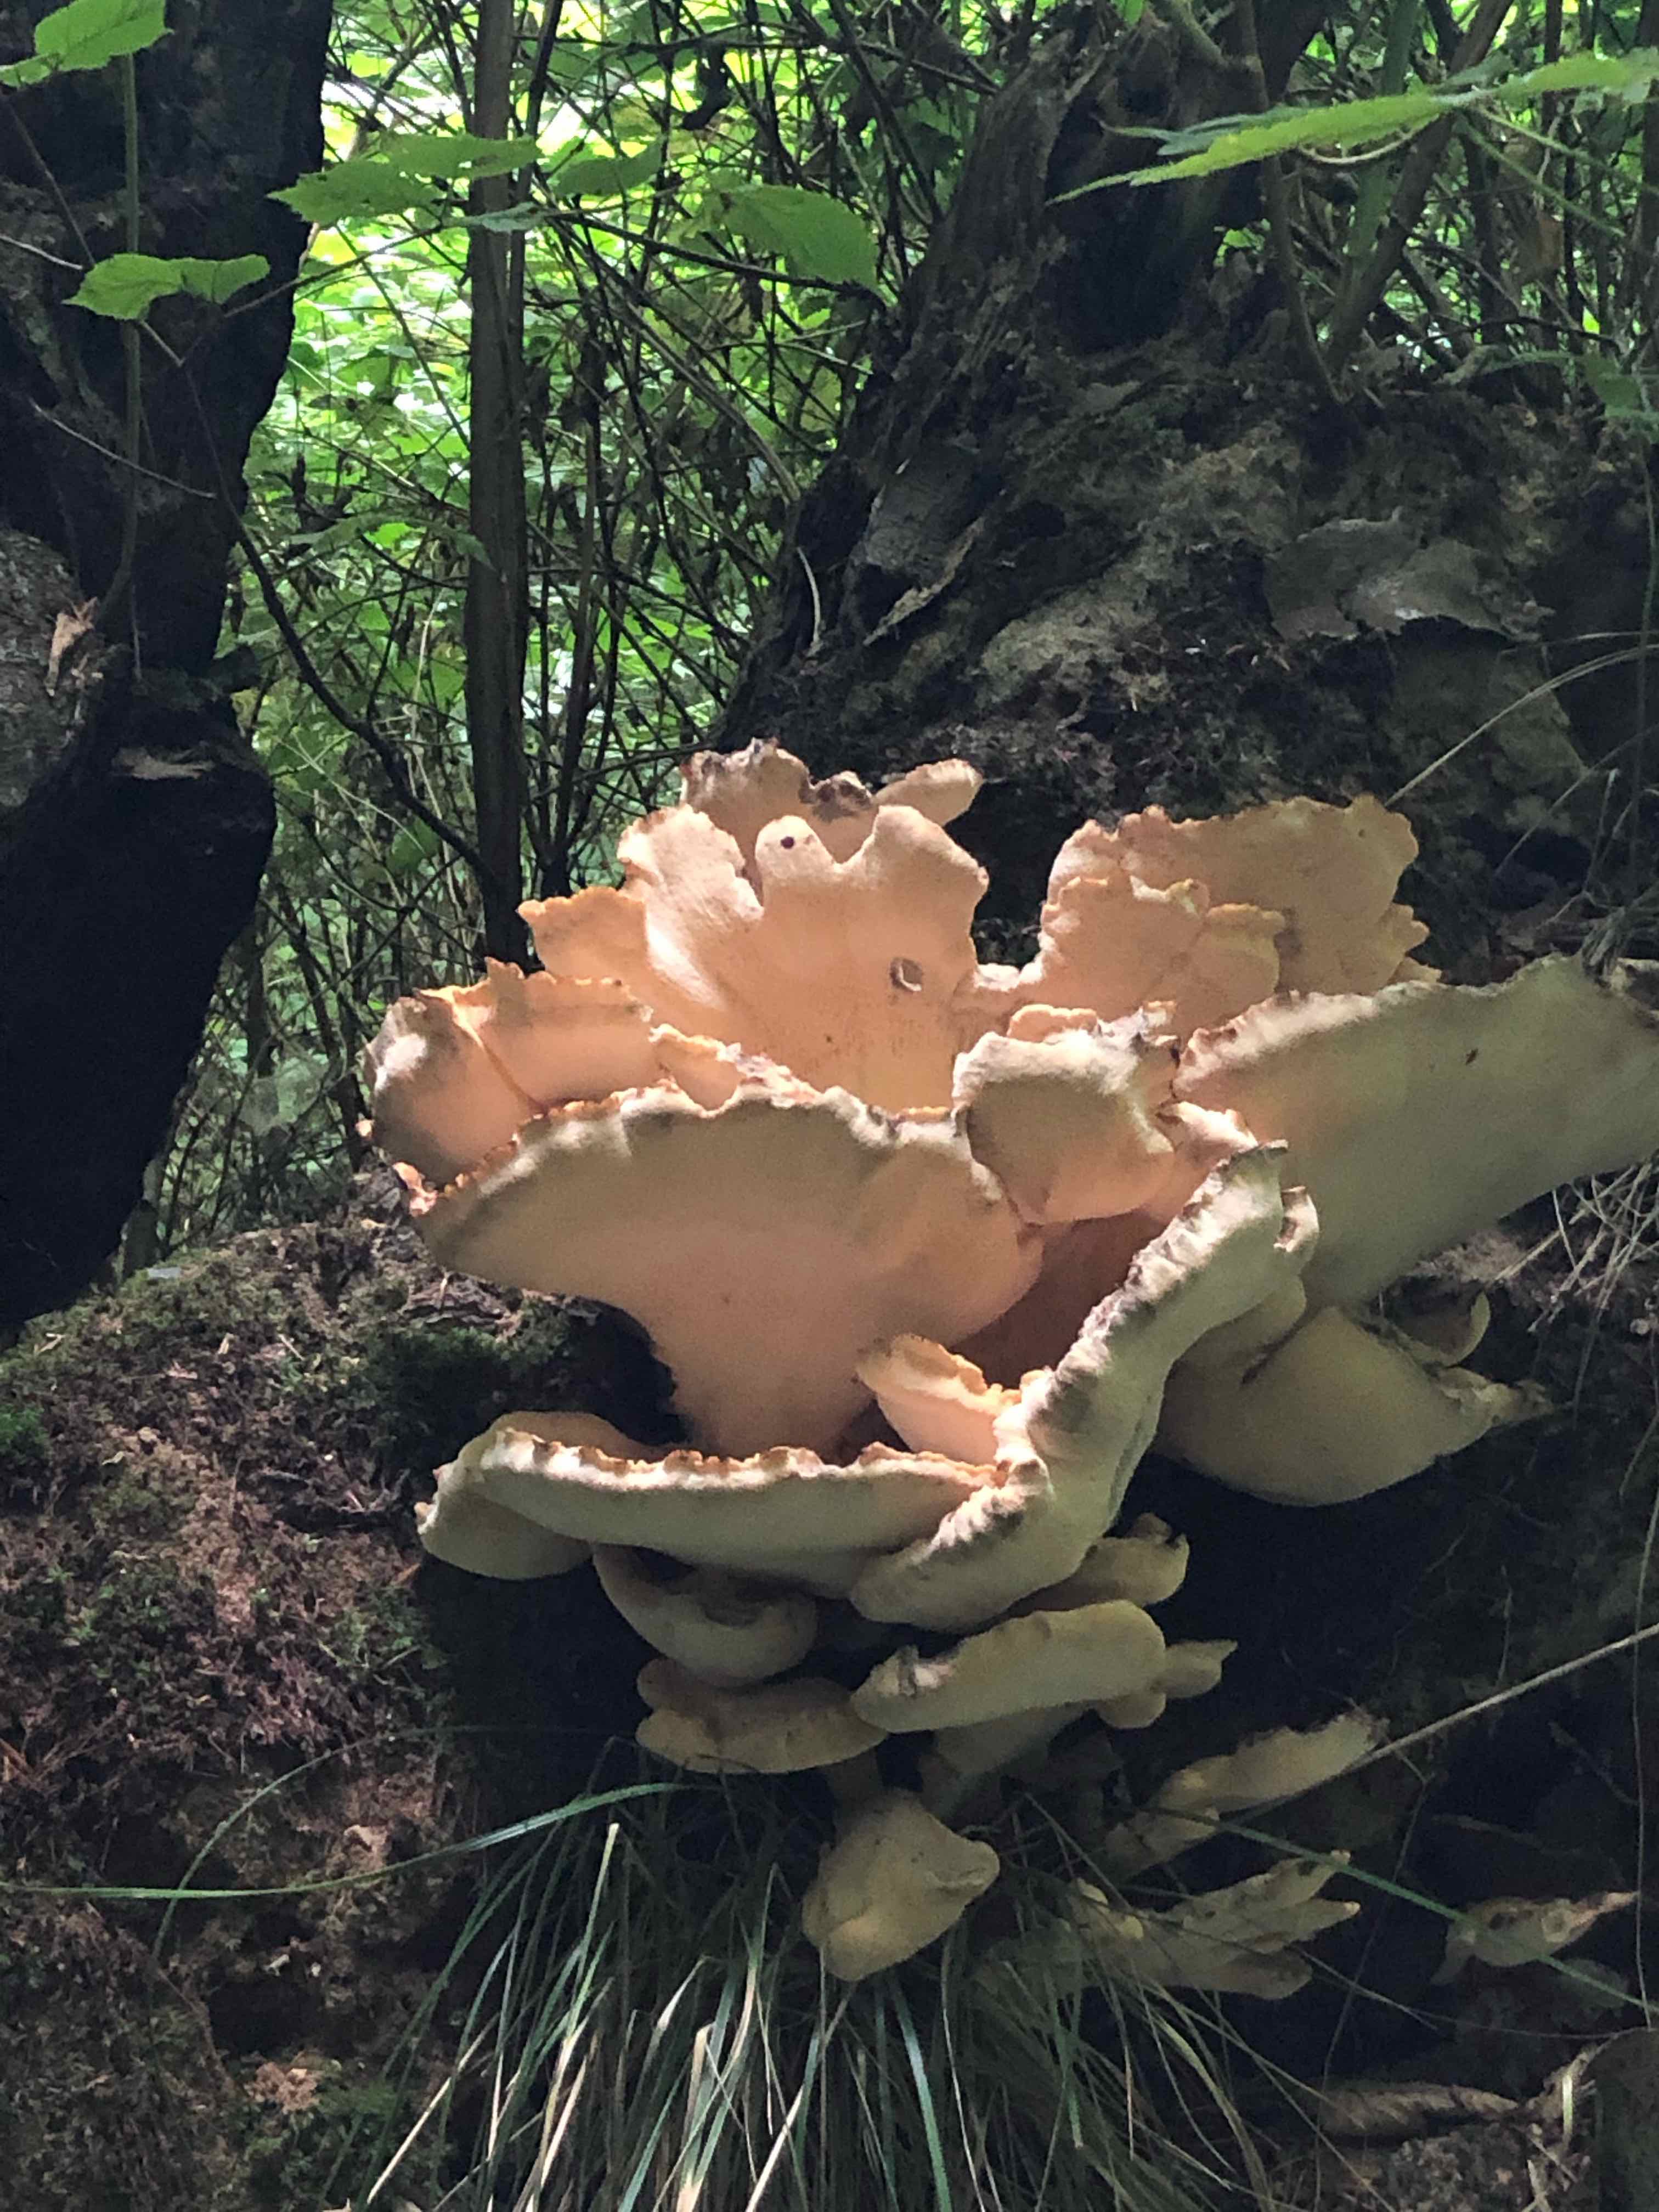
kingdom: Fungi
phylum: Basidiomycota
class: Agaricomycetes
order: Polyporales
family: Meripilaceae
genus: Meripilus
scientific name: Meripilus giganteus
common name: kæmpeporesvamp
